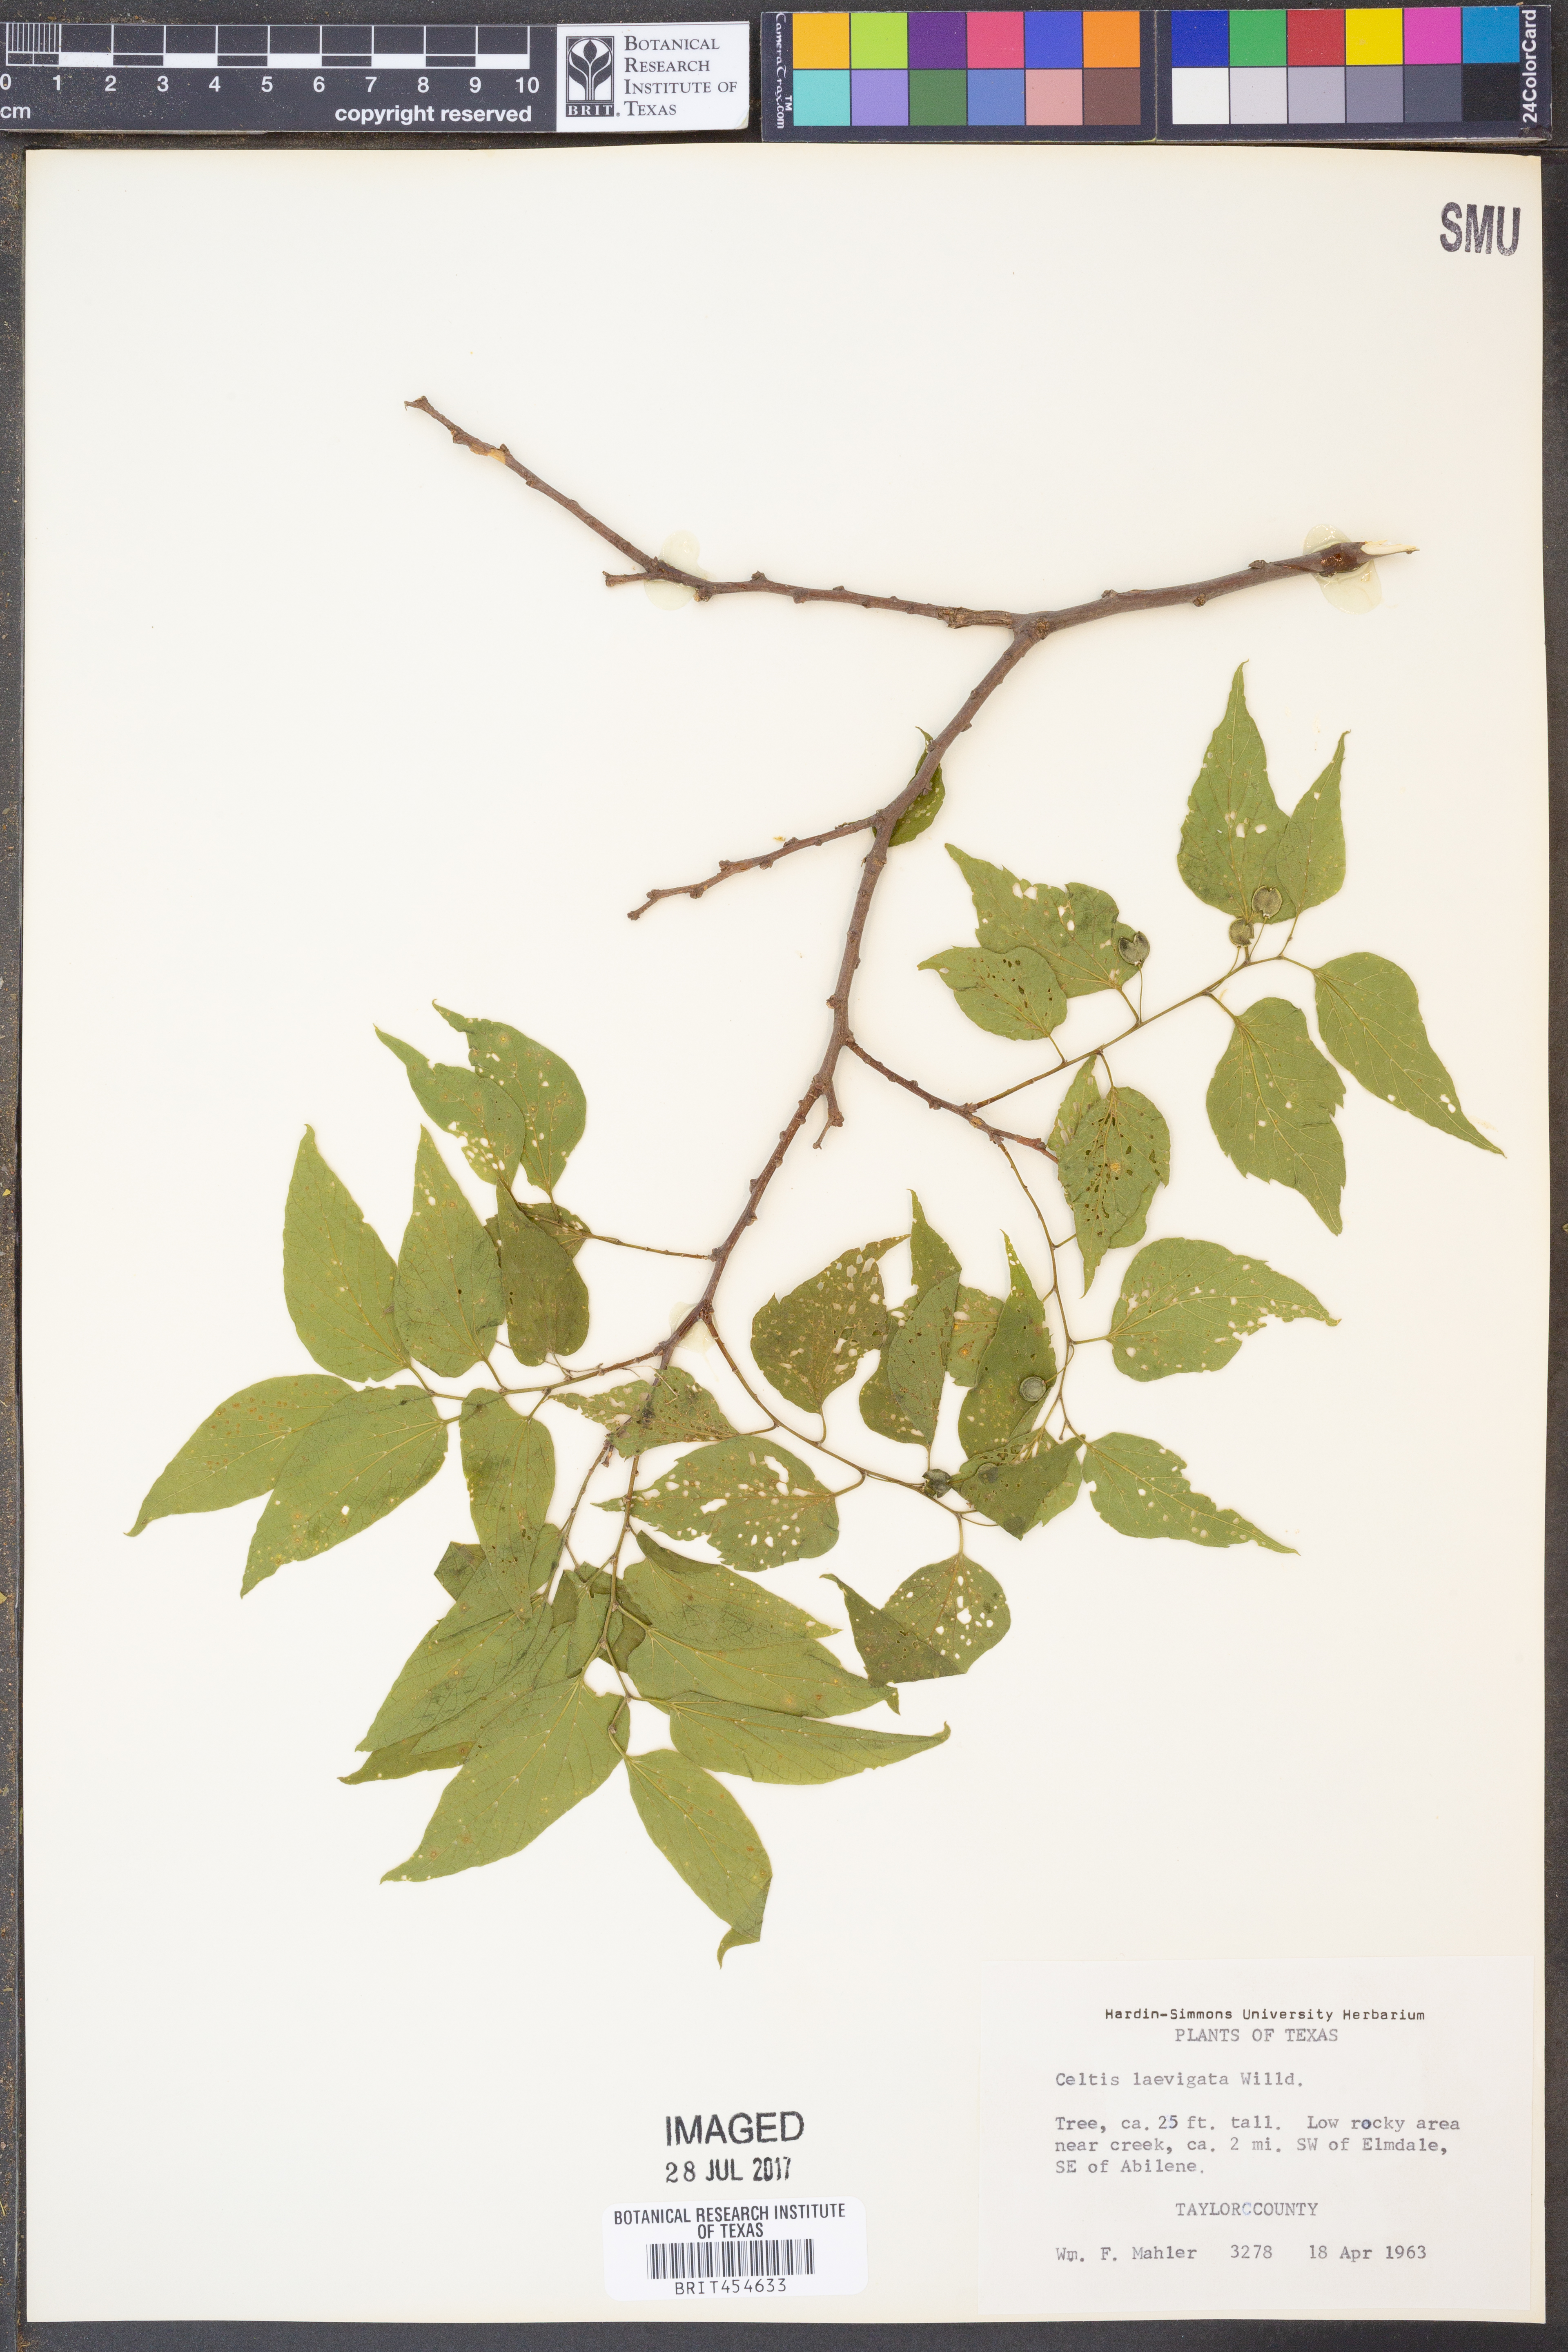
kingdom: Plantae
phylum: Tracheophyta
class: Magnoliopsida
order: Rosales
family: Cannabaceae
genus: Celtis
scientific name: Celtis laevigata
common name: Sugarberry
